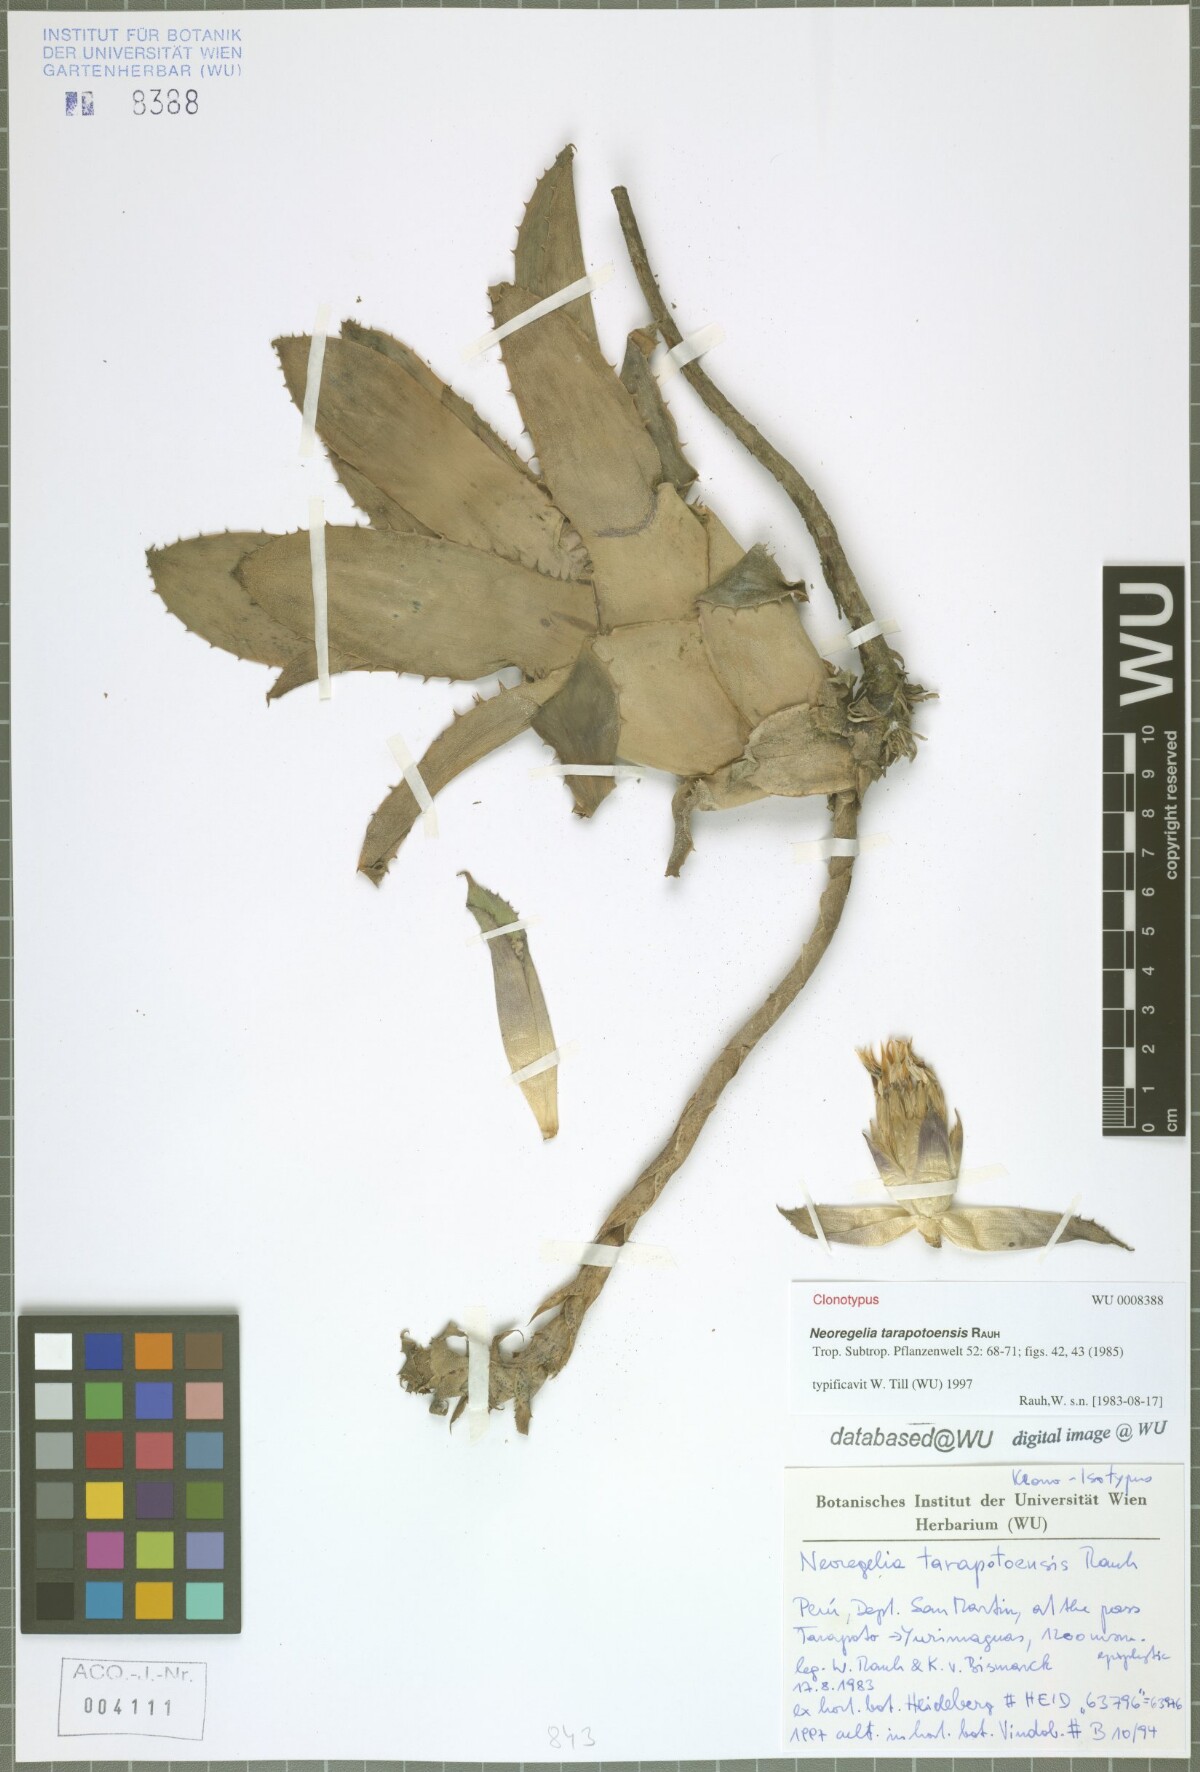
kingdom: Plantae
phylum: Tracheophyta
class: Liliopsida
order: Poales
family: Bromeliaceae
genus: Hylaeaicum
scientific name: Hylaeaicum tarapotoense
